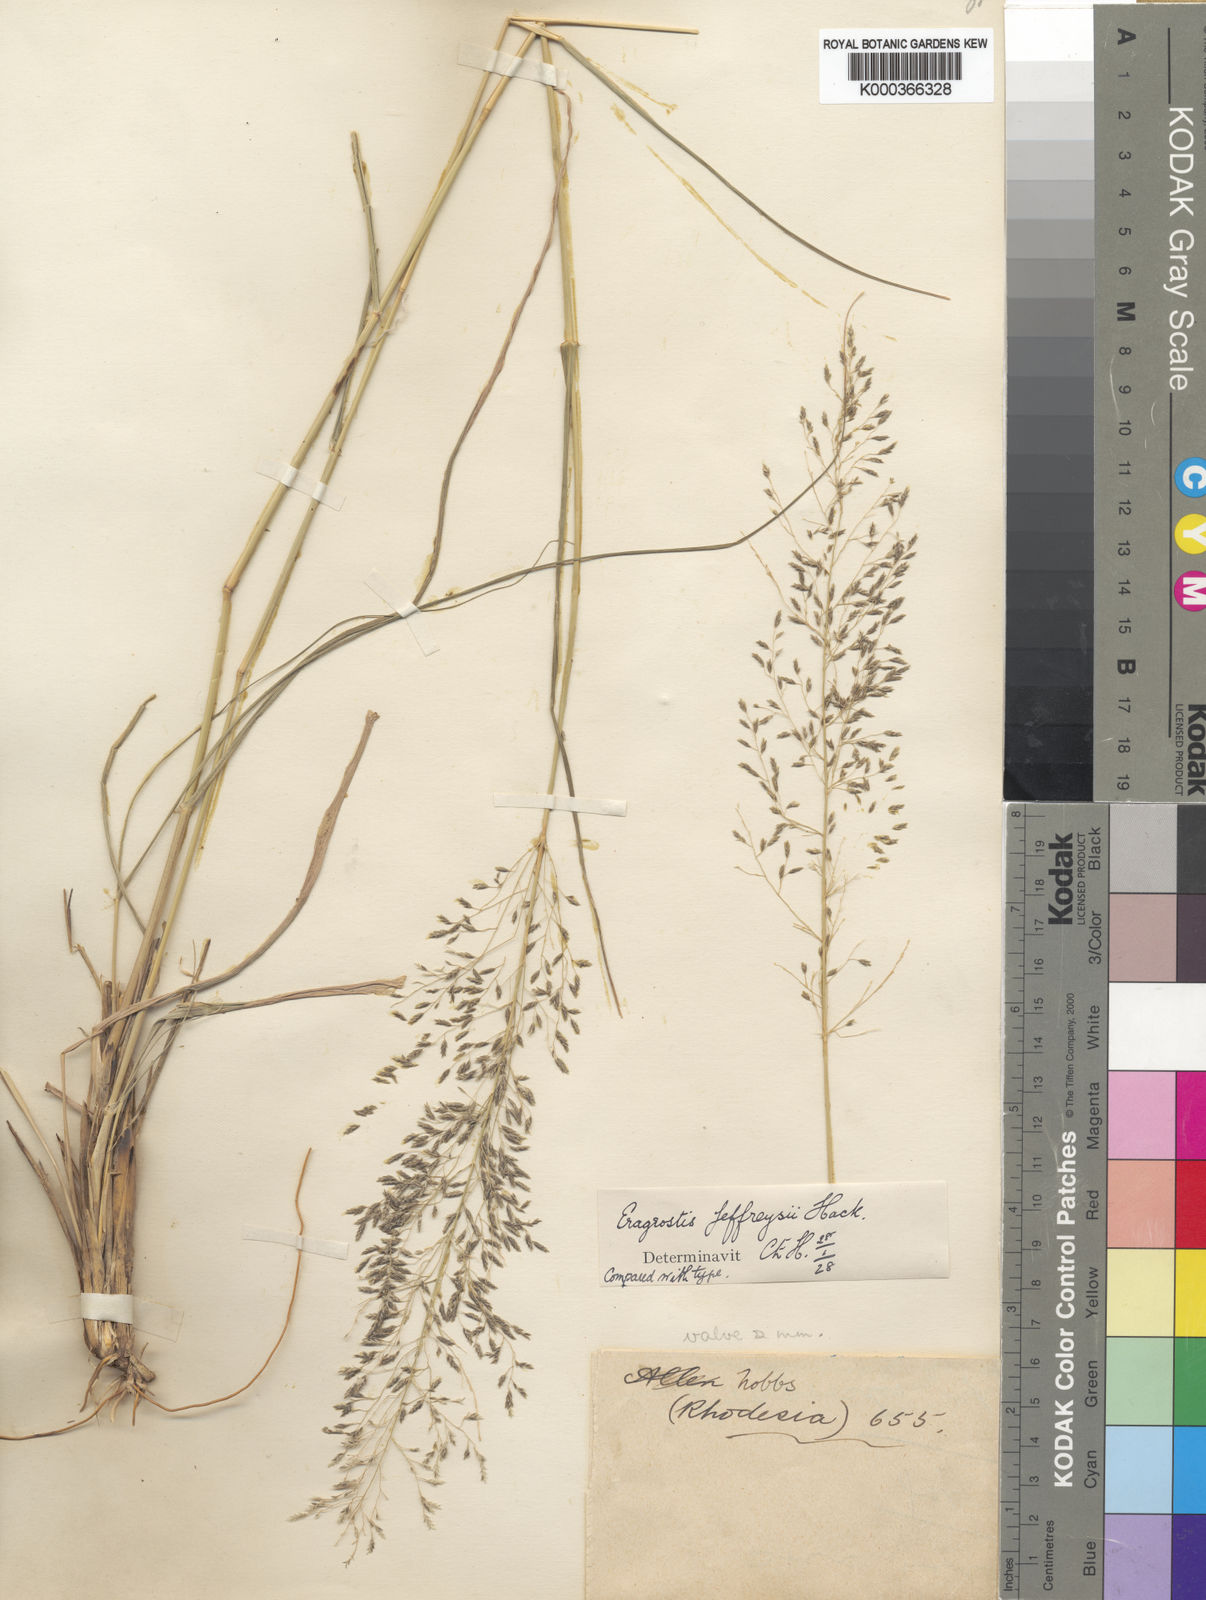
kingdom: Plantae
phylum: Tracheophyta
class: Liliopsida
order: Poales
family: Poaceae
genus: Eragrostis
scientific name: Eragrostis curvula
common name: African love-grass
